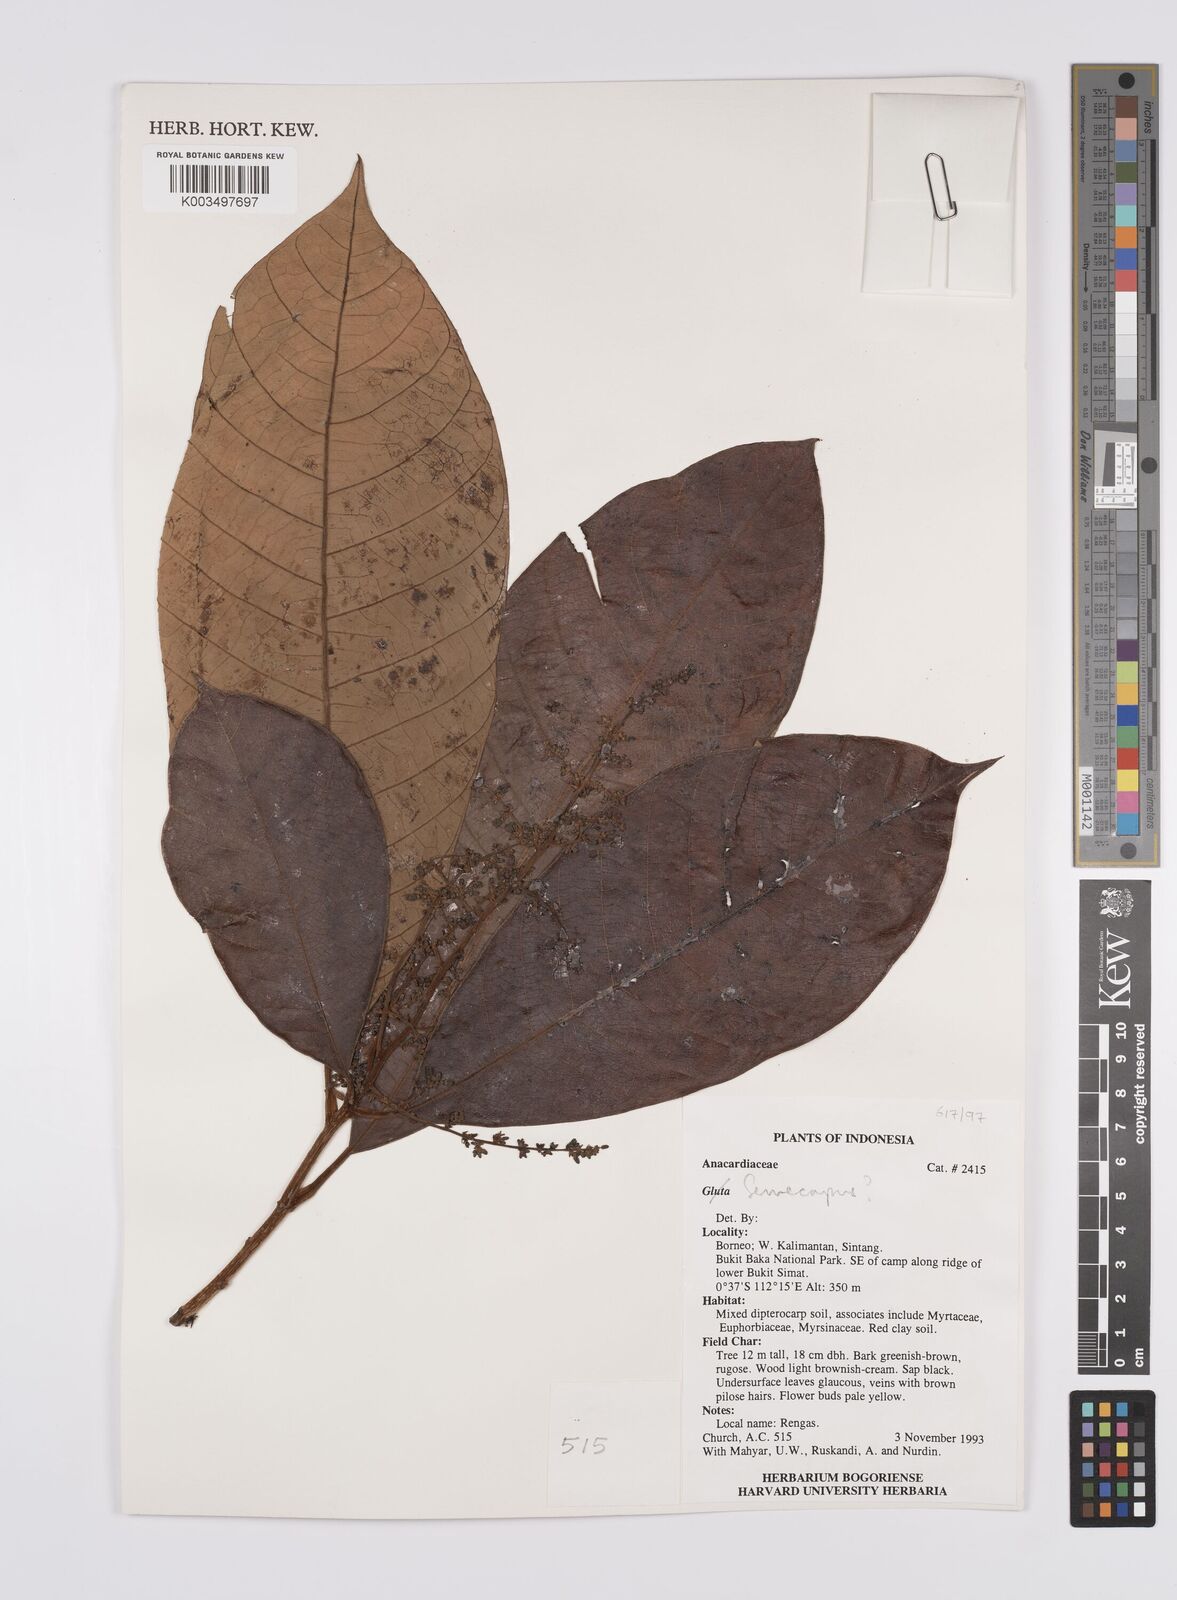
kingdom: Plantae
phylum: Tracheophyta
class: Magnoliopsida
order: Sapindales
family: Anacardiaceae
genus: Semecarpus
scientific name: Semecarpus
